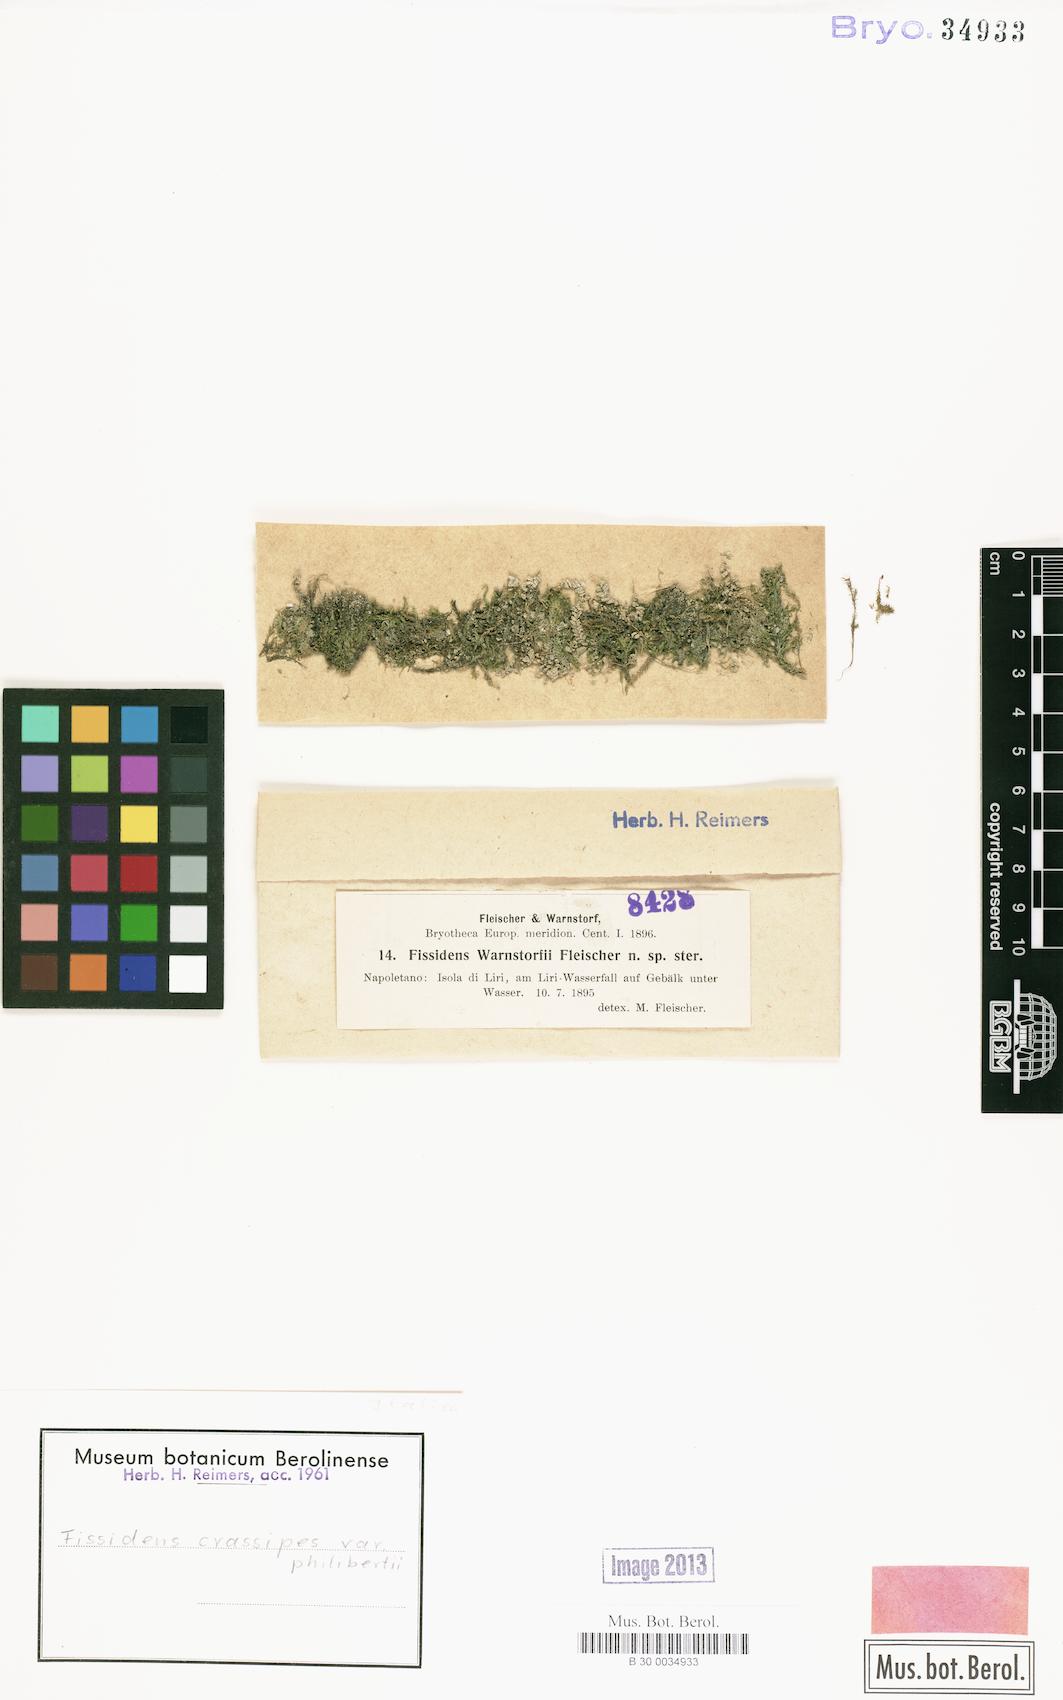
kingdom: Plantae
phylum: Bryophyta
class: Bryopsida
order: Dicranales
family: Fissidentaceae
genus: Fissidens
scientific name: Fissidens crassipes
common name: Fatfoot pocket-moss
